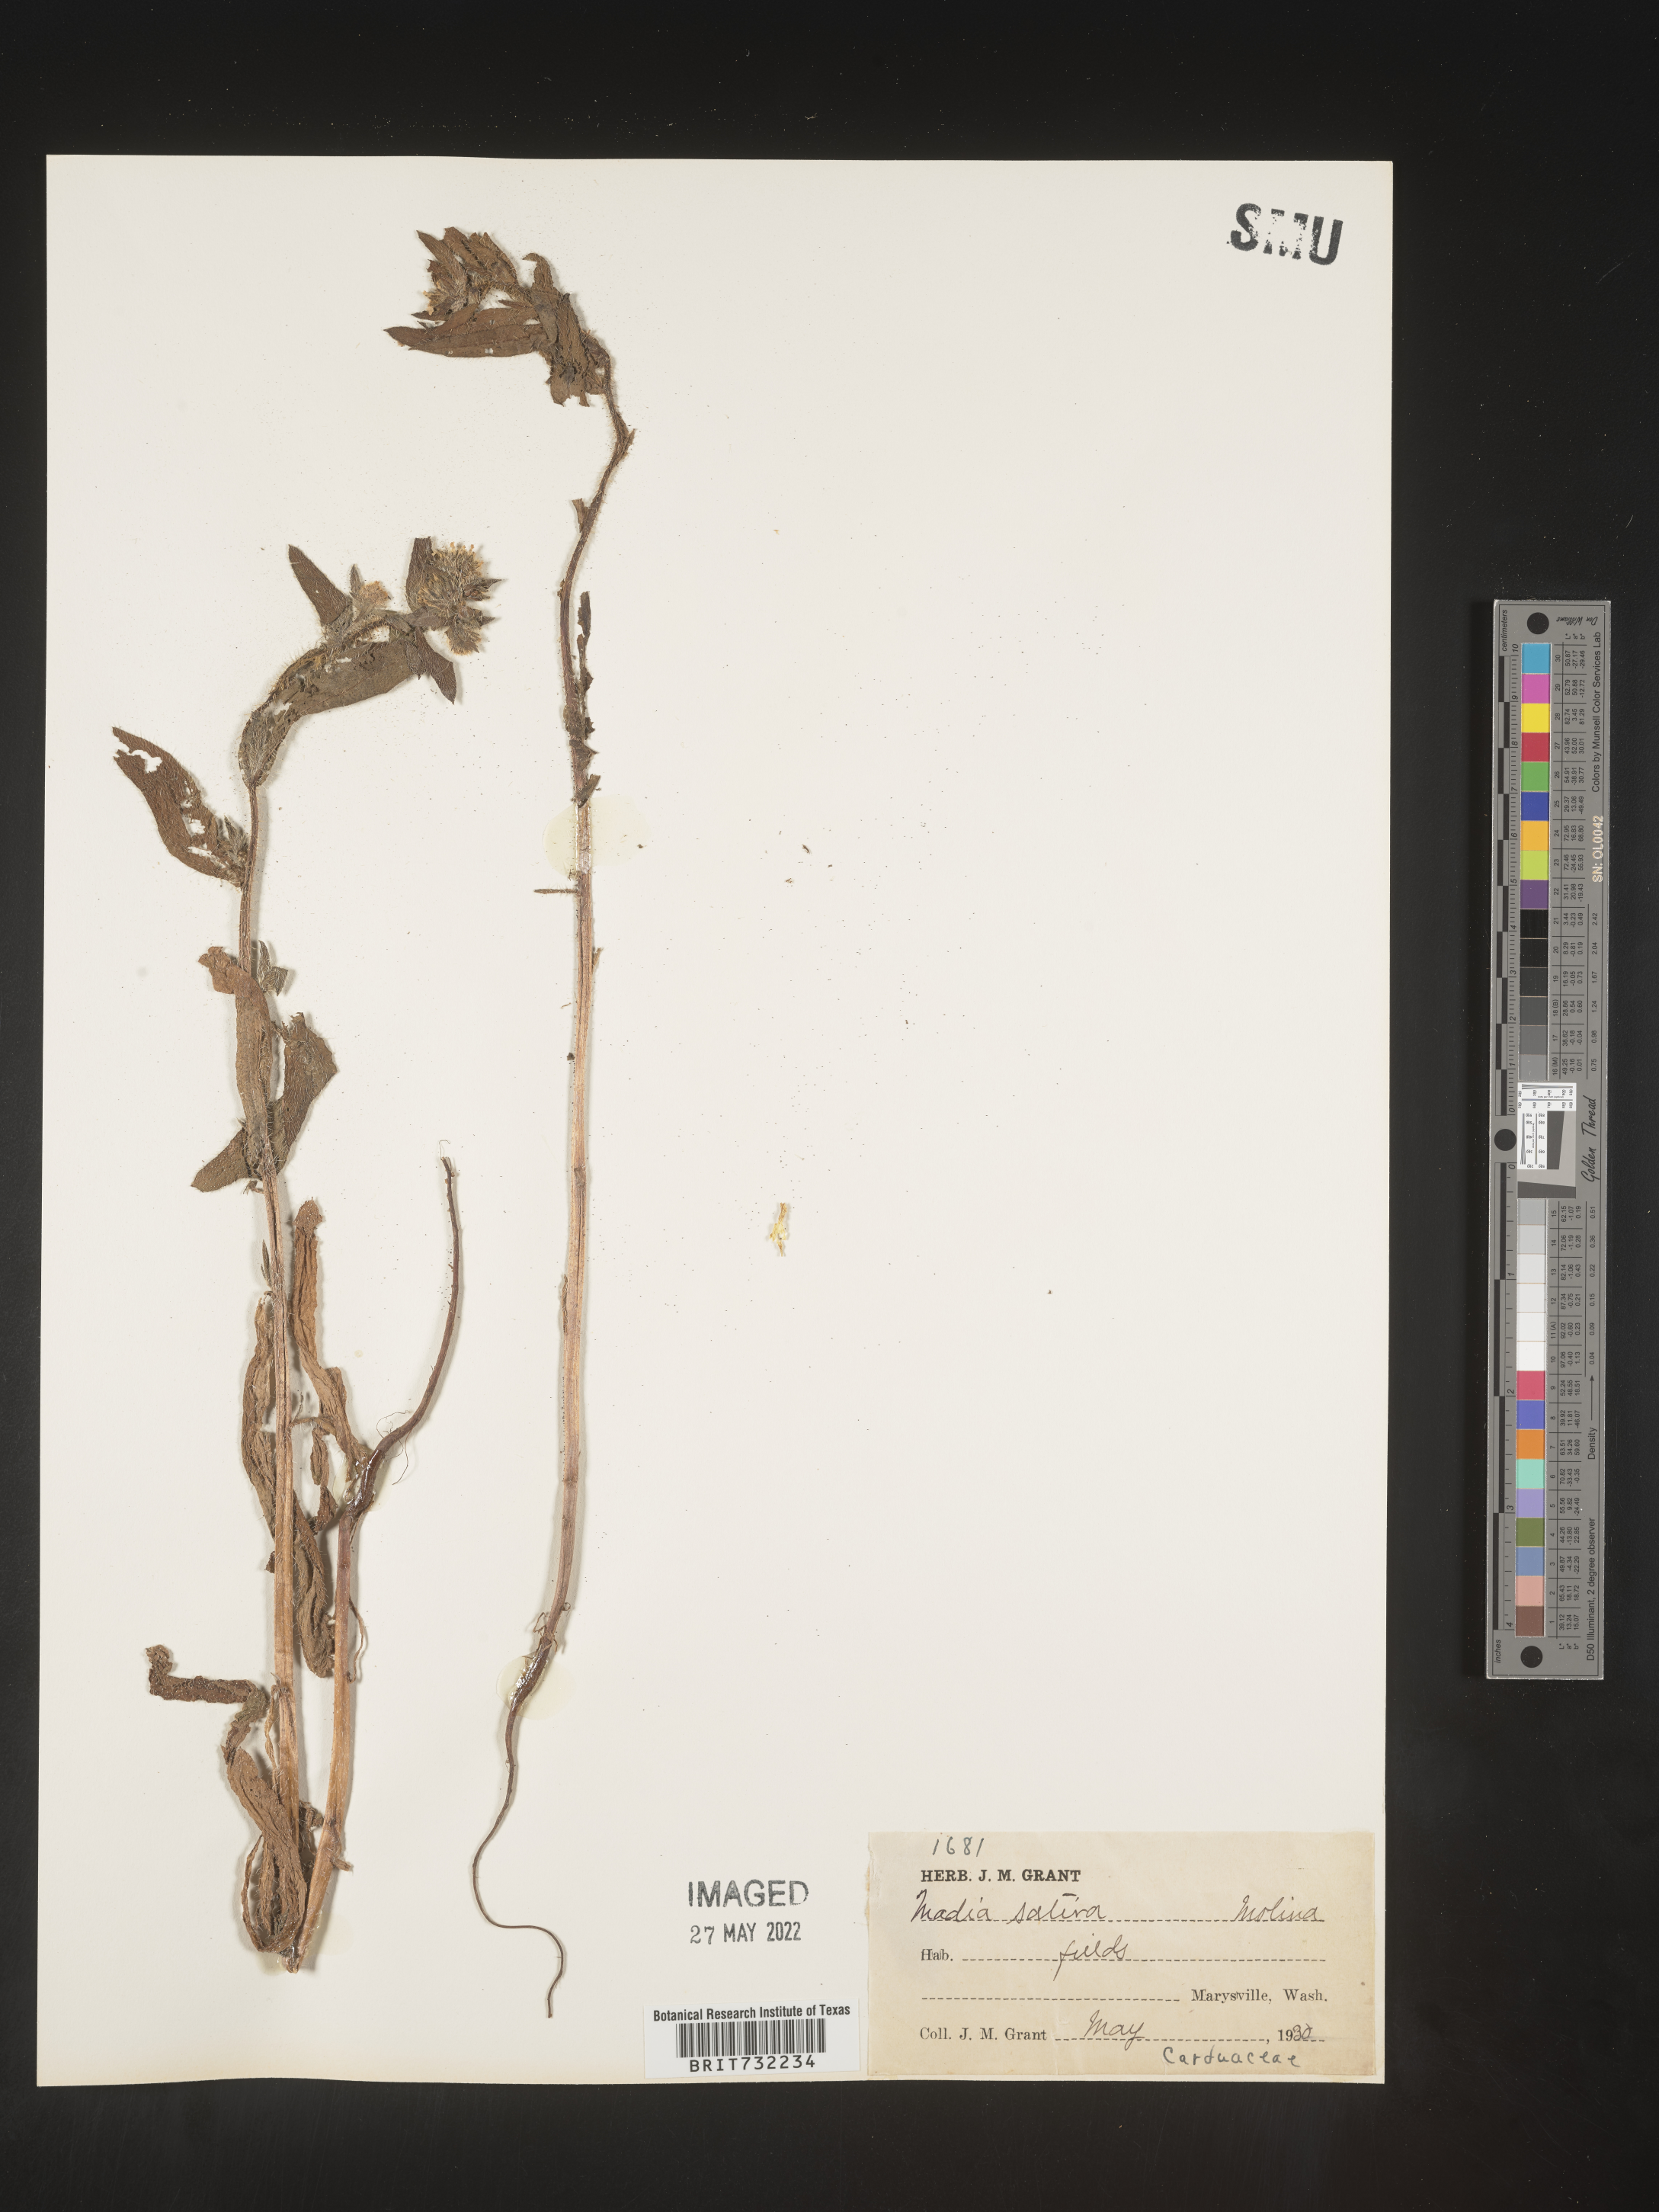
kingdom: Plantae
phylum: Tracheophyta
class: Magnoliopsida
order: Asterales
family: Asteraceae
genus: Madia
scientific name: Madia
